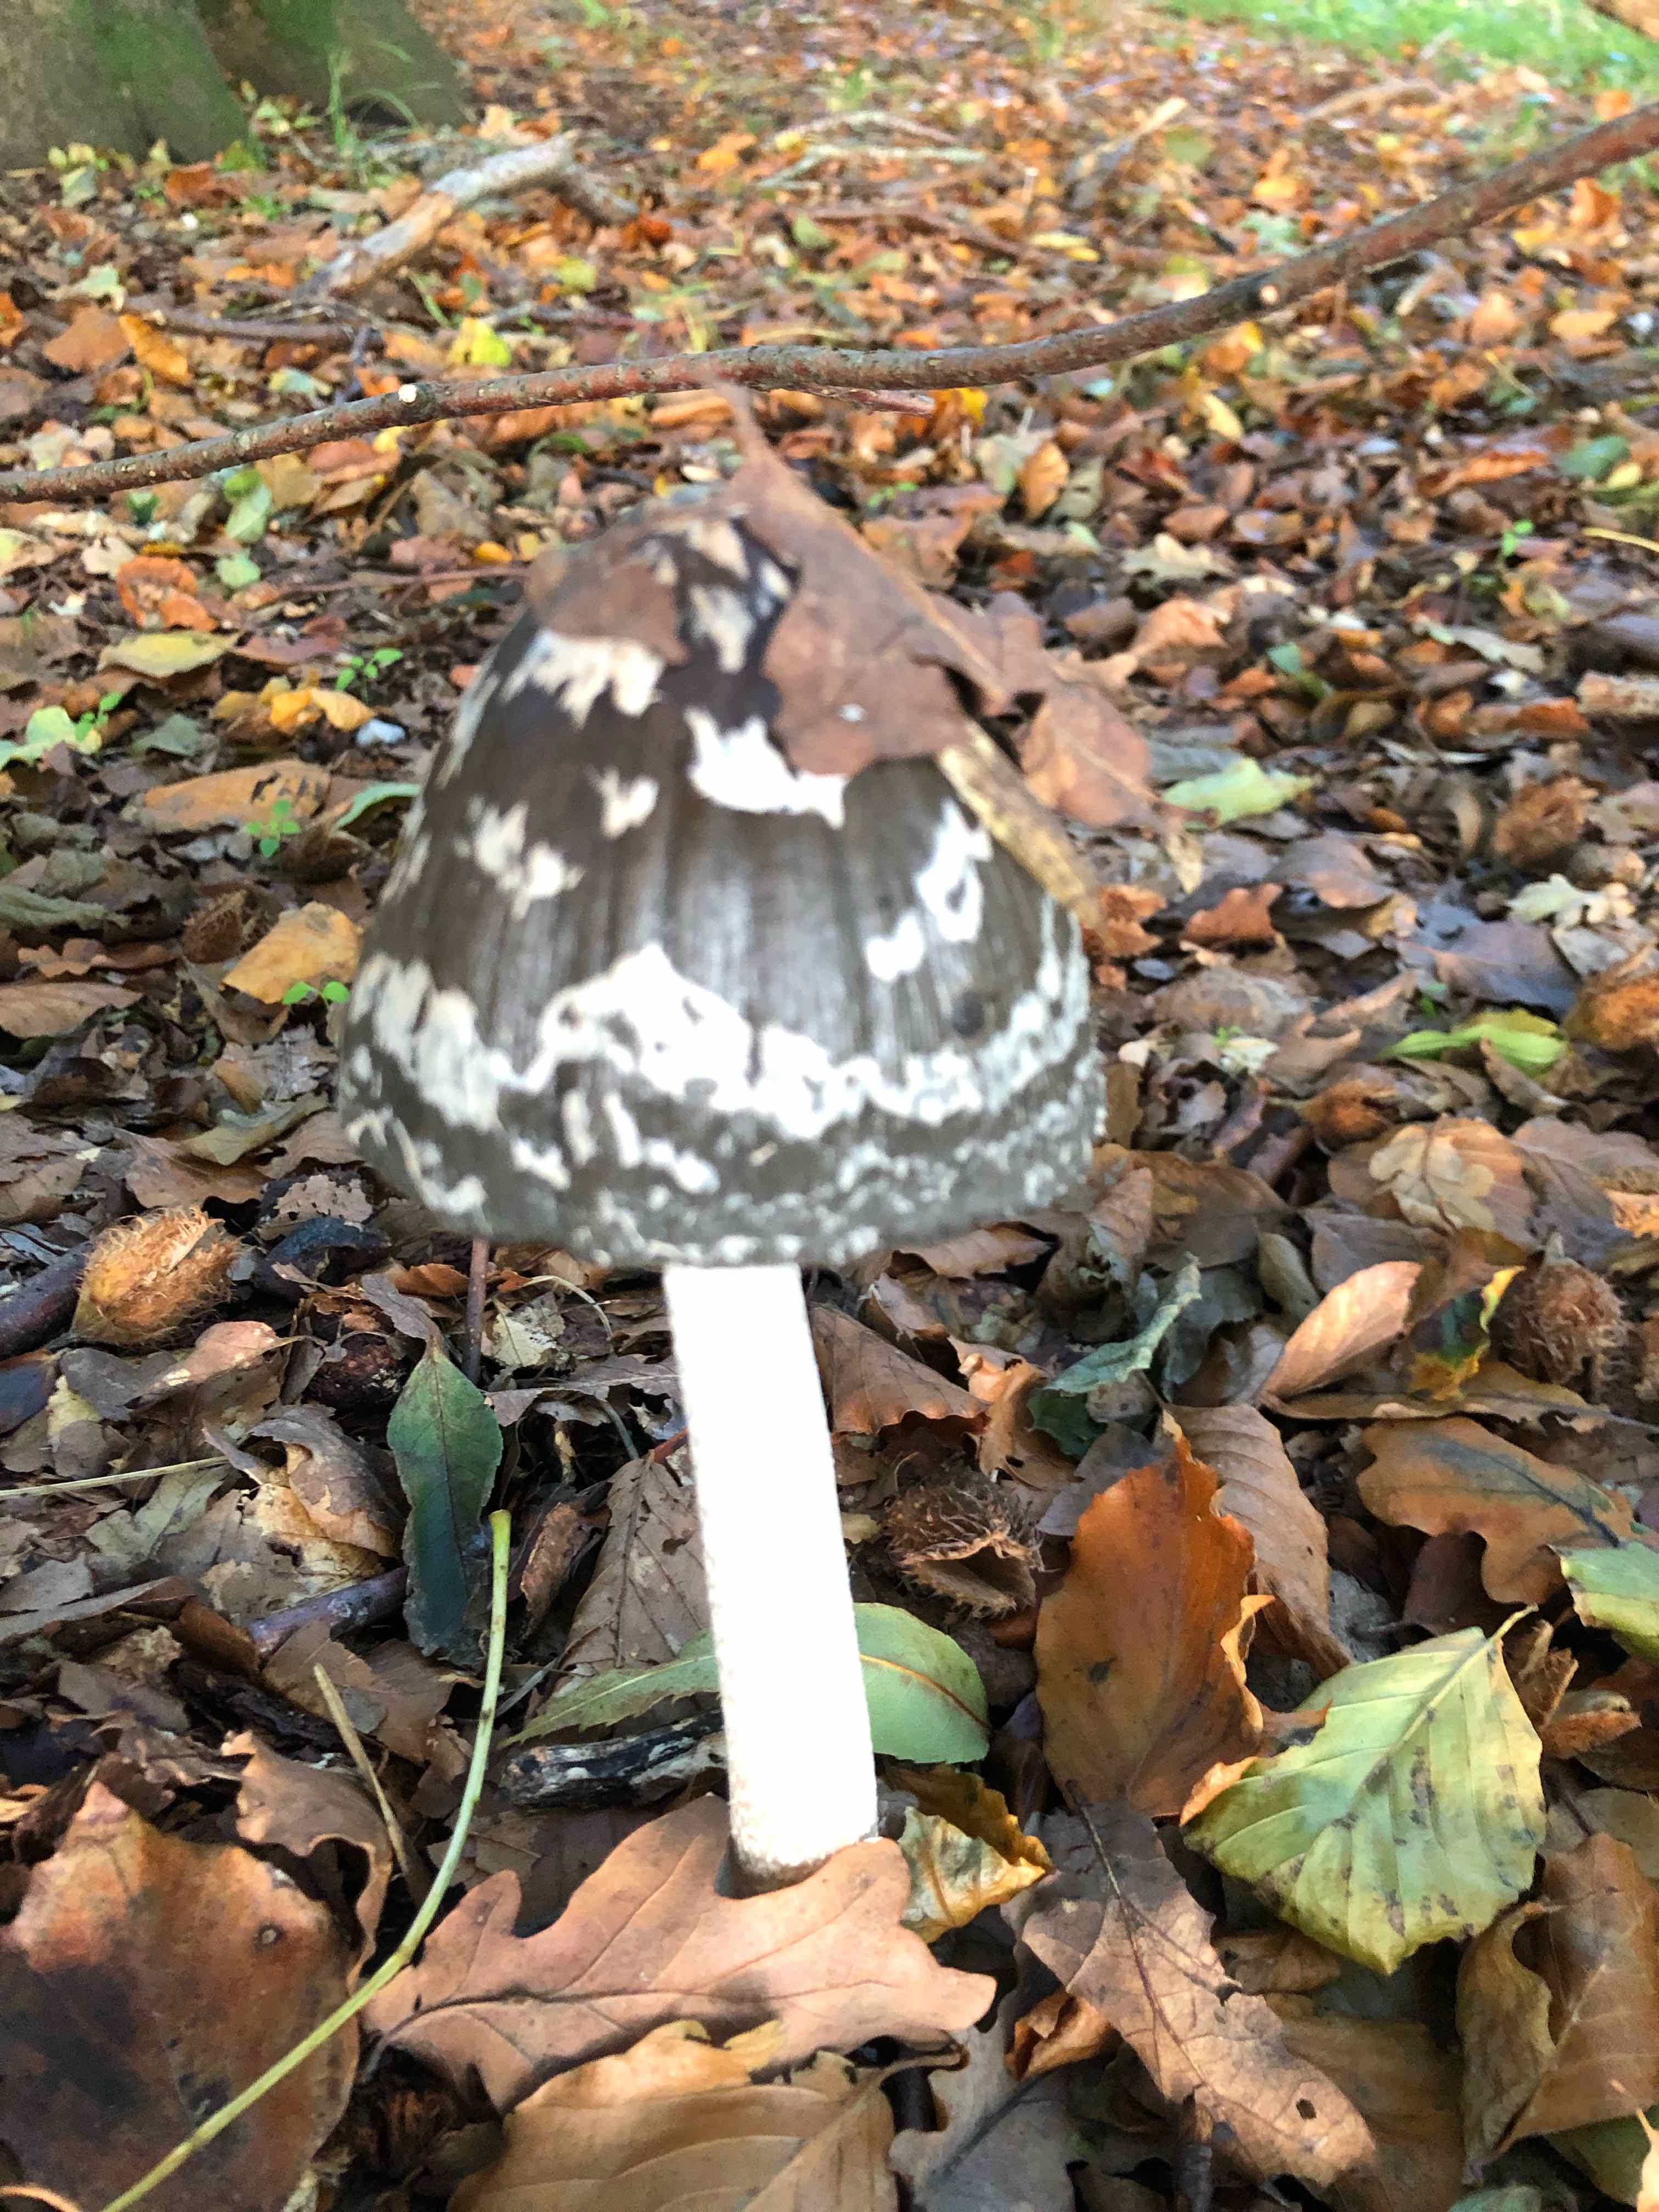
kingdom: Fungi
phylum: Basidiomycota
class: Agaricomycetes
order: Agaricales
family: Psathyrellaceae
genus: Coprinopsis
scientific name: Coprinopsis picacea
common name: skade-blækhat
